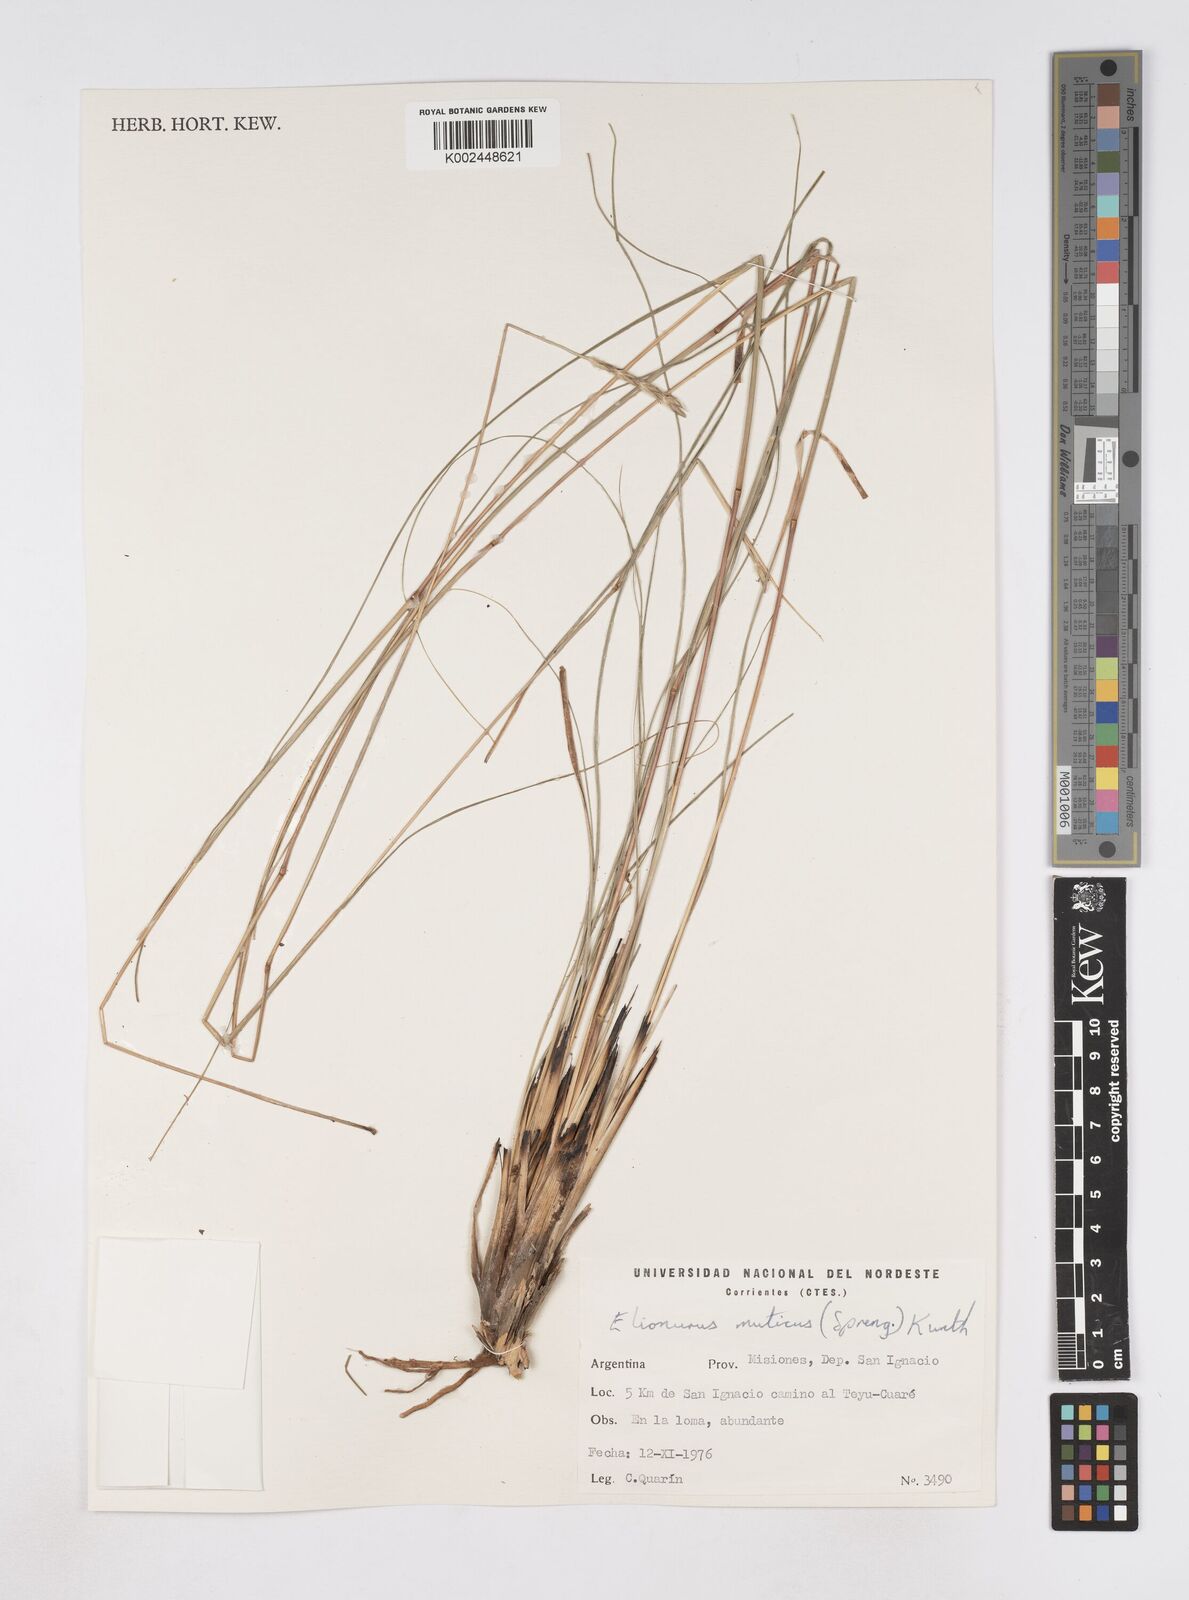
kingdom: Plantae
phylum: Tracheophyta
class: Liliopsida
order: Poales
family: Poaceae
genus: Elionurus
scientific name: Elionurus muticus
